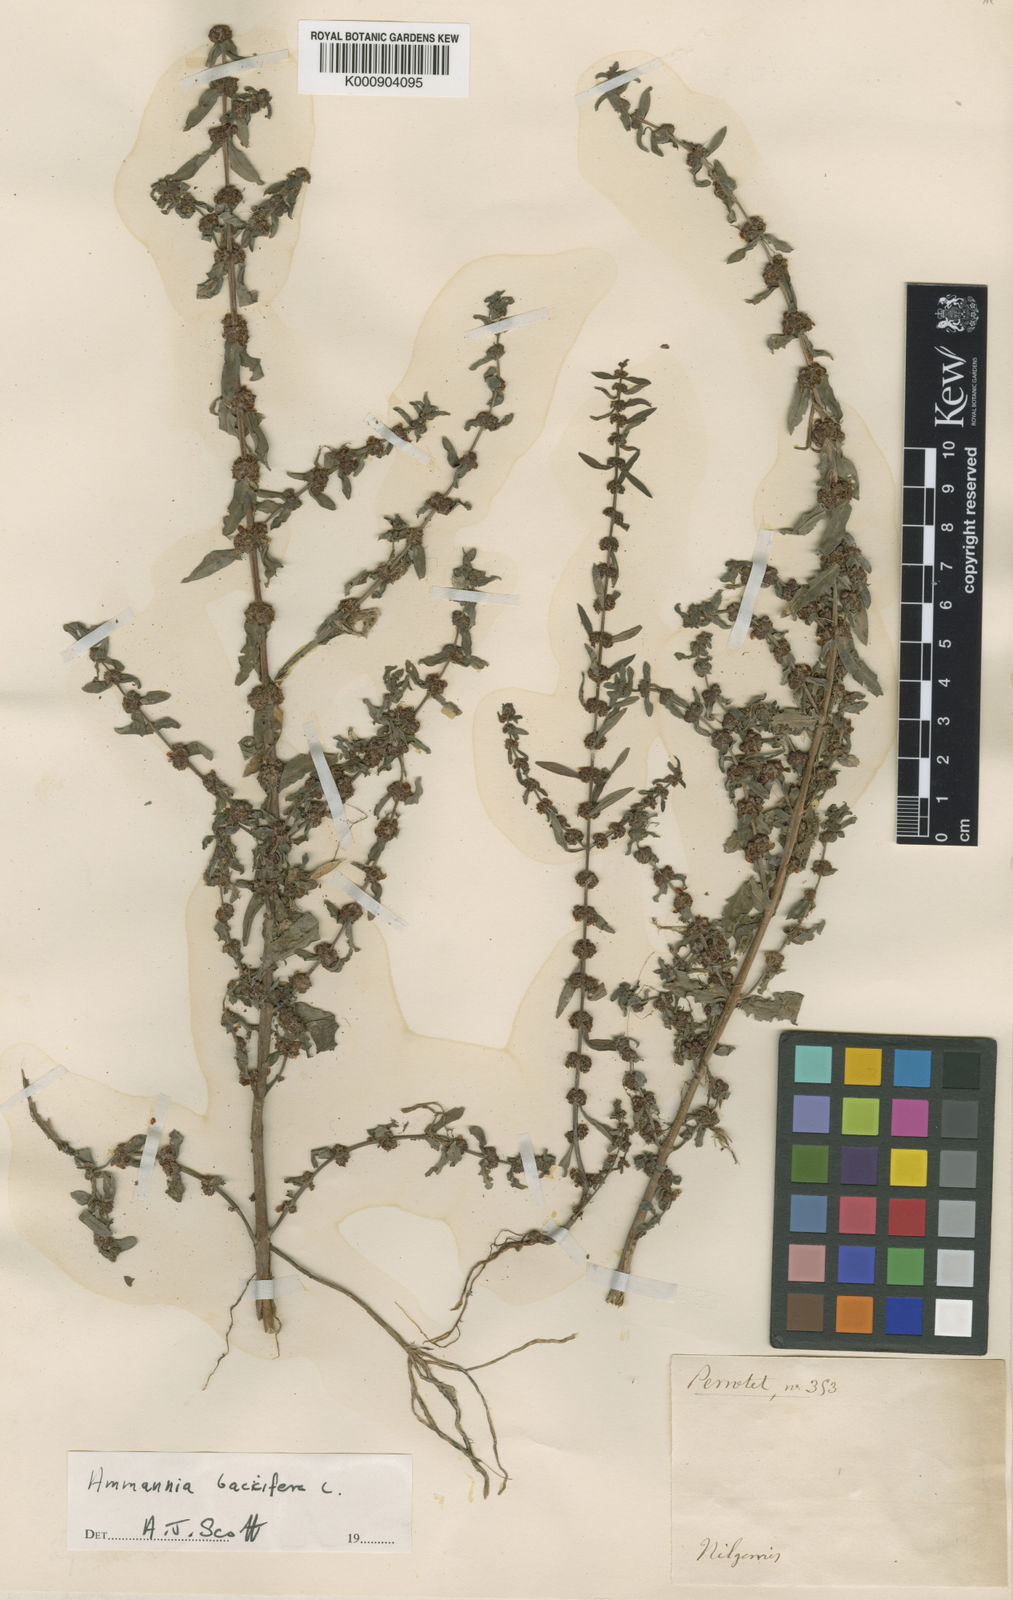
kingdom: Plantae
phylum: Tracheophyta
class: Magnoliopsida
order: Myrtales
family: Lythraceae
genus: Ammannia
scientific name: Ammannia baccifera
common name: Blistering ammania
